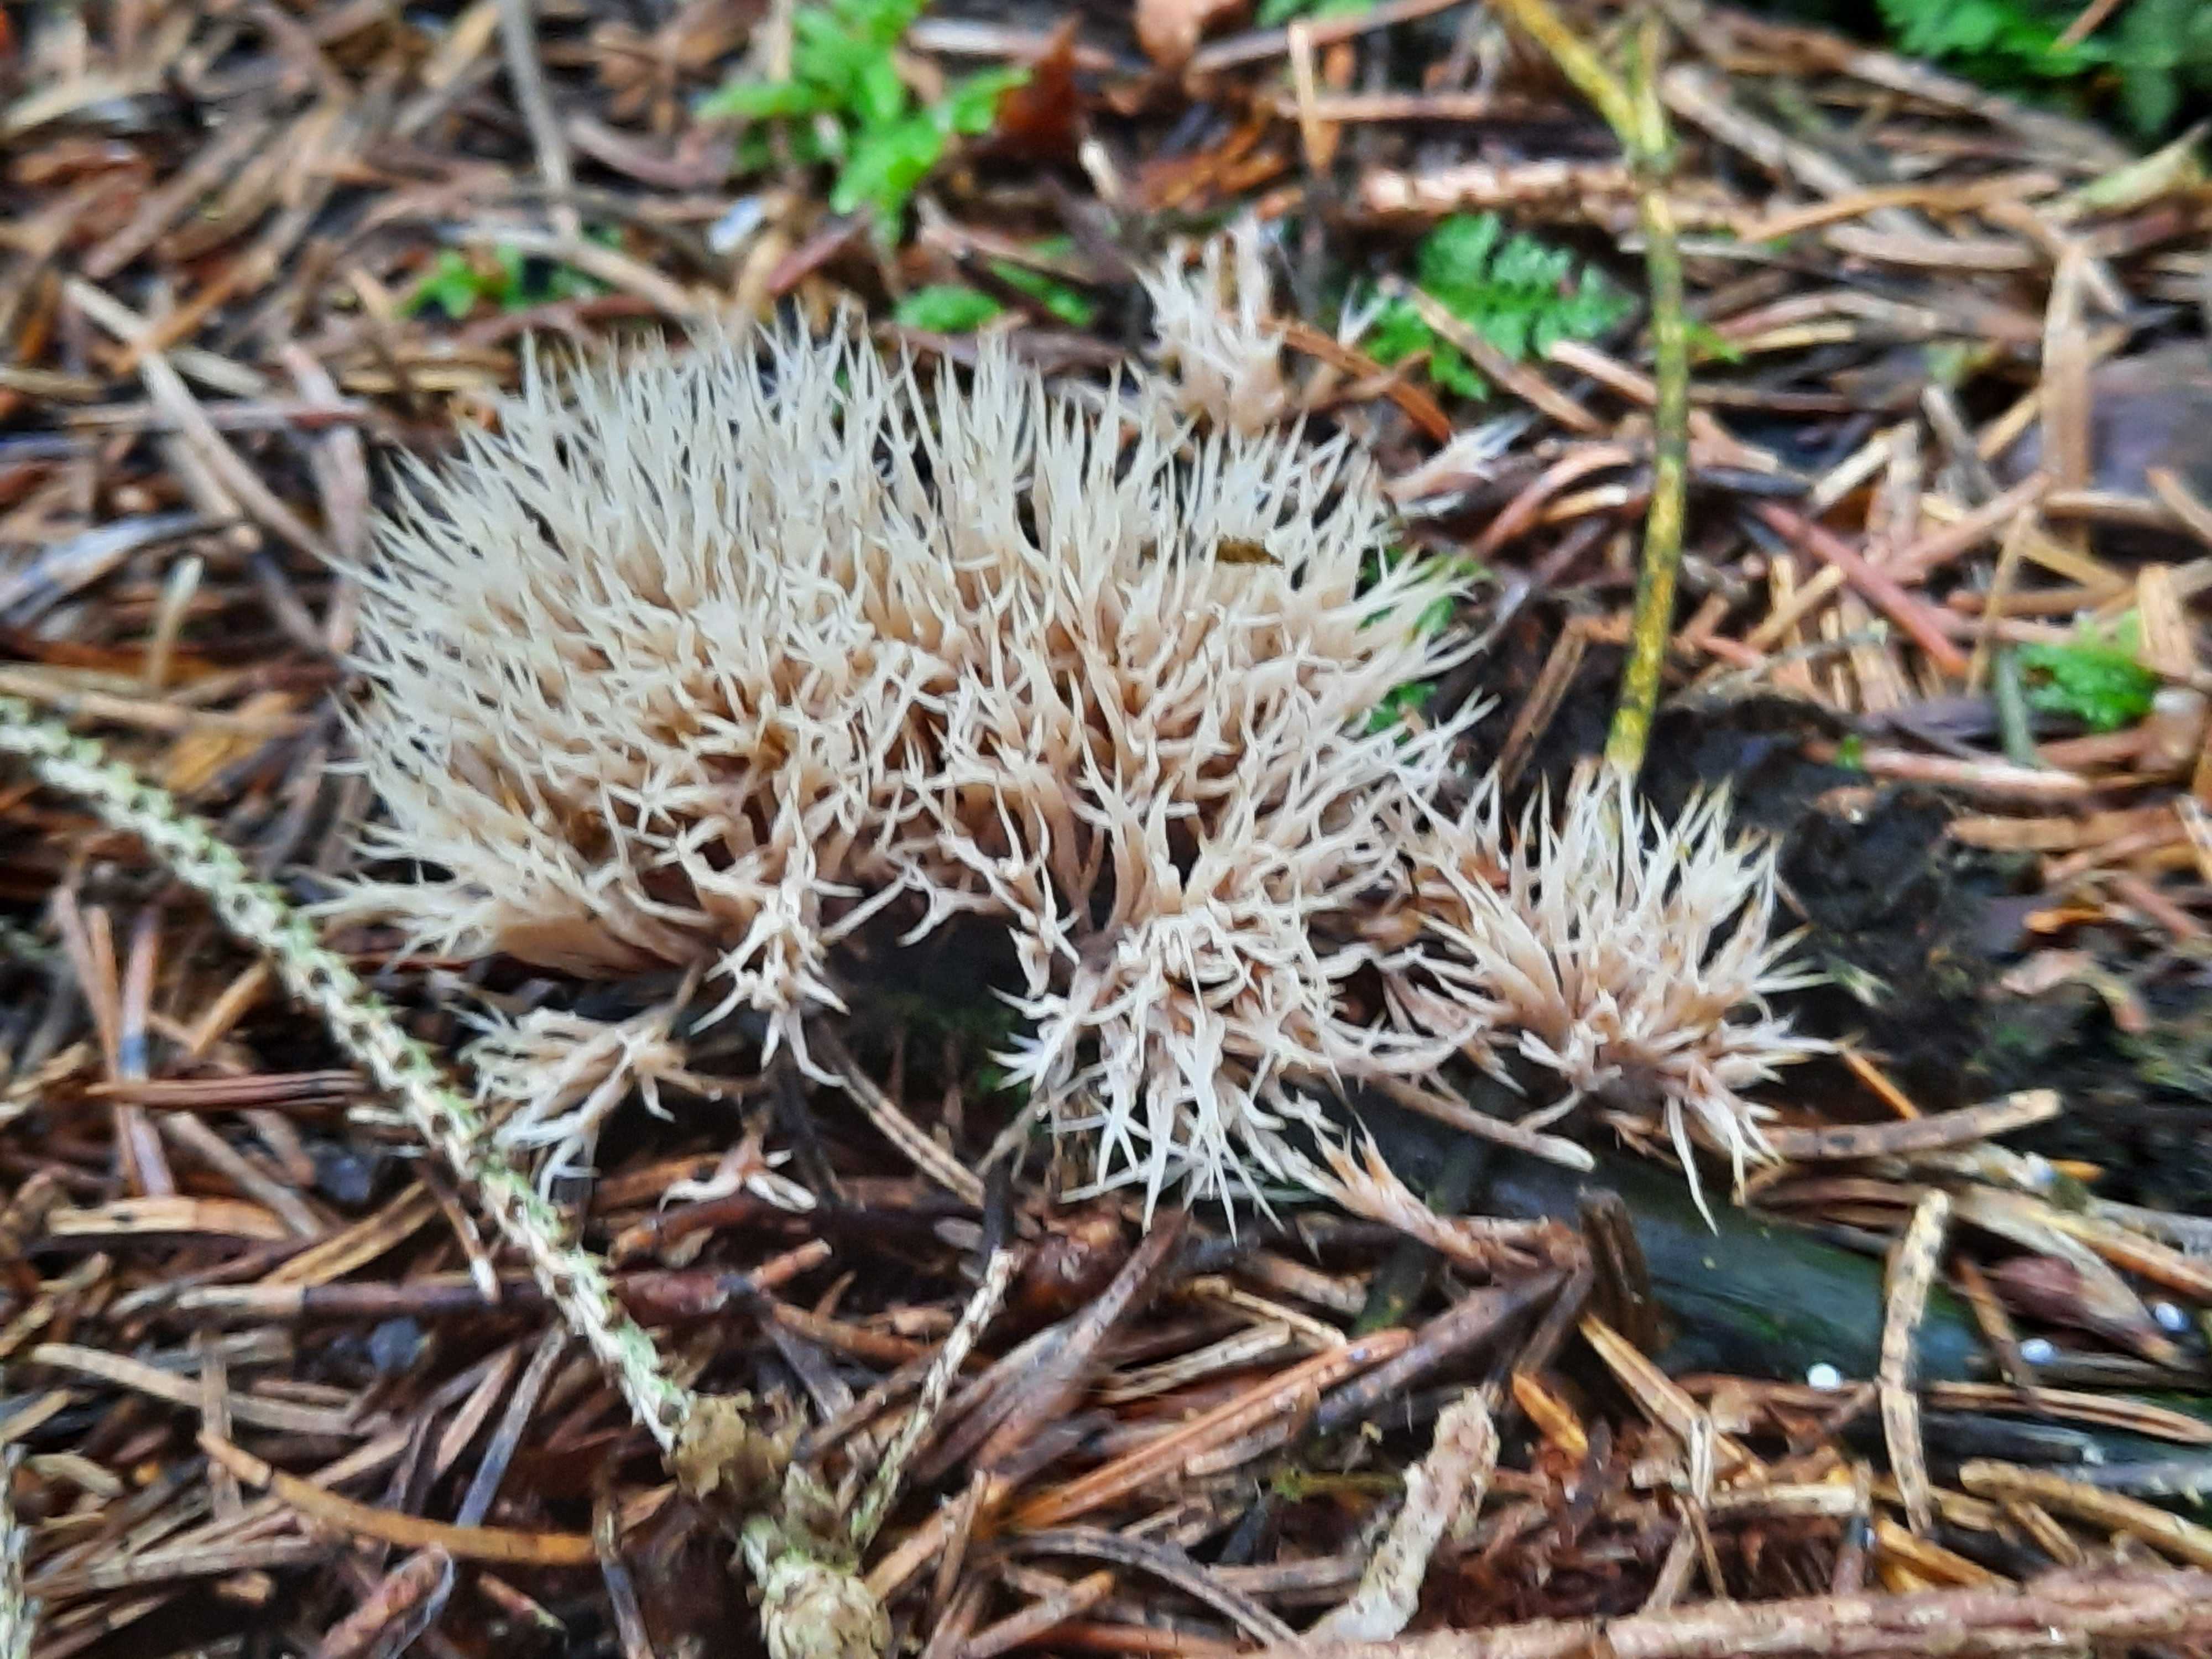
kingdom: Fungi
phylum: Basidiomycota
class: Agaricomycetes
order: Agaricales
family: Pterulaceae
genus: Pterula
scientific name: Pterula multifida
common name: busket fjerkølle
